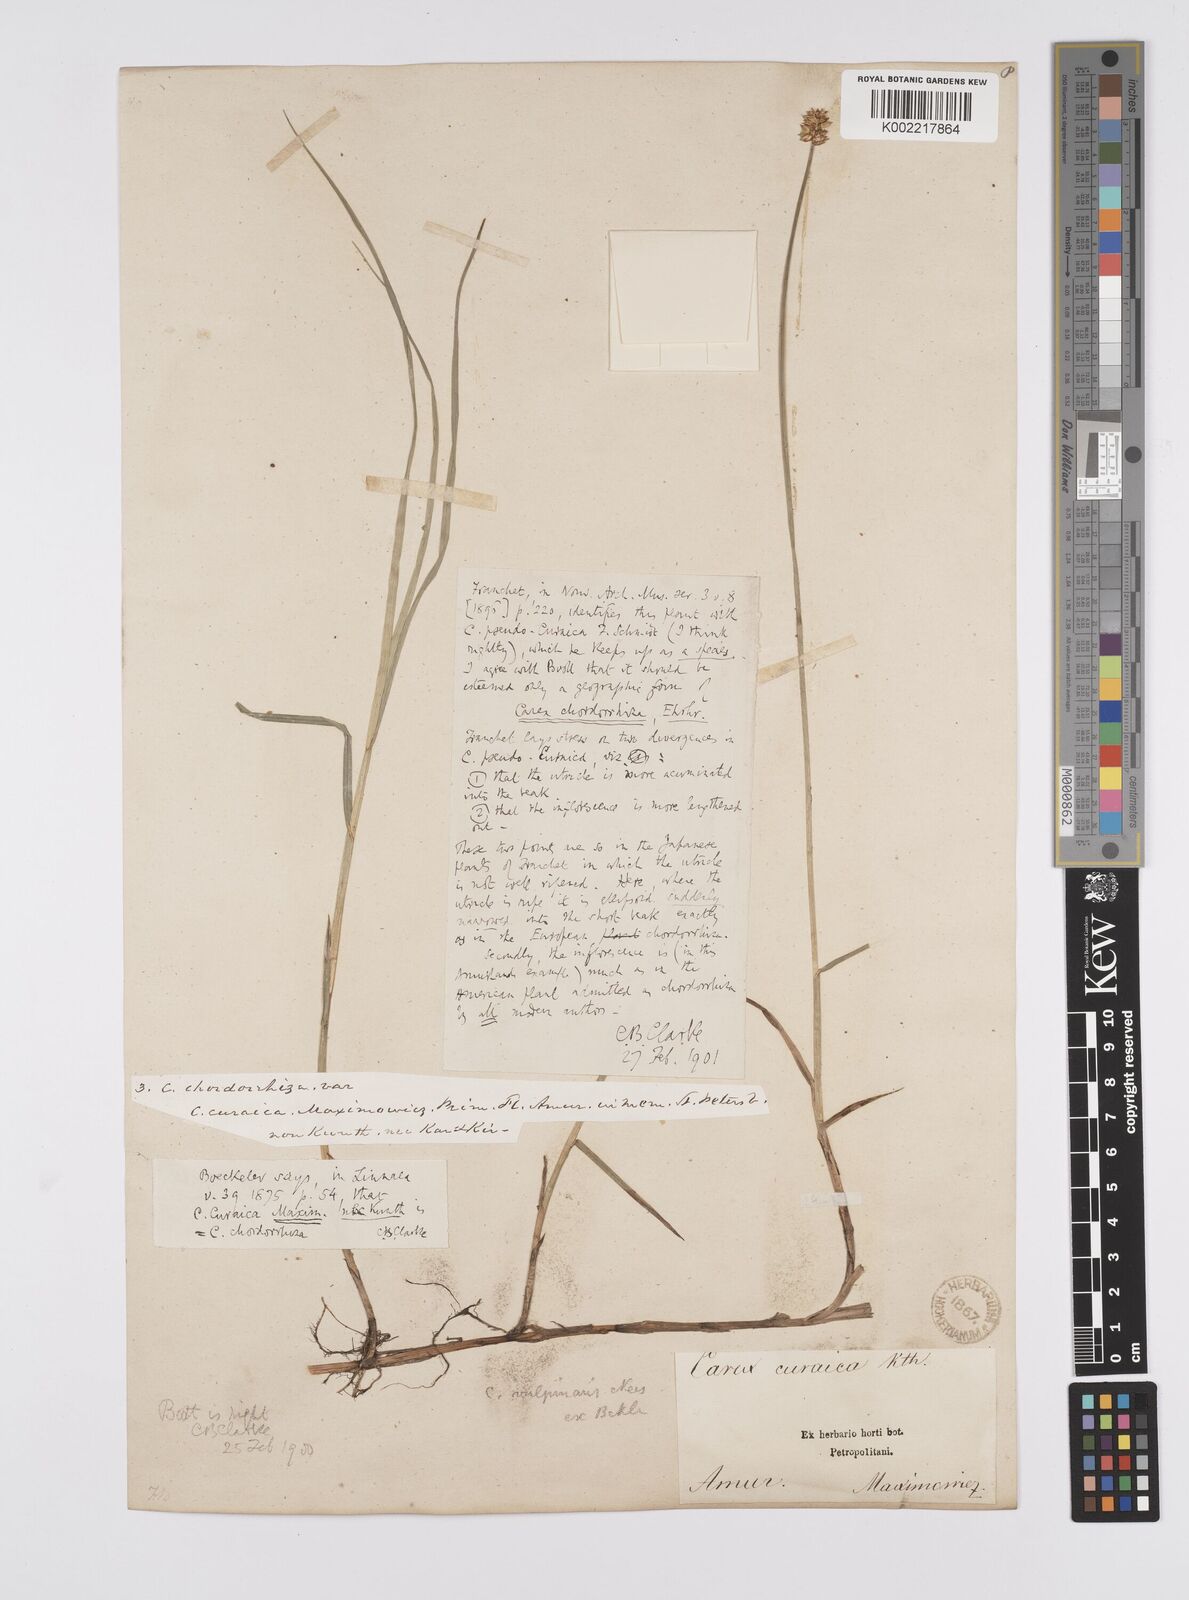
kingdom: Plantae
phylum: Tracheophyta
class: Liliopsida
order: Poales
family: Cyperaceae
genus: Carex
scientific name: Carex
